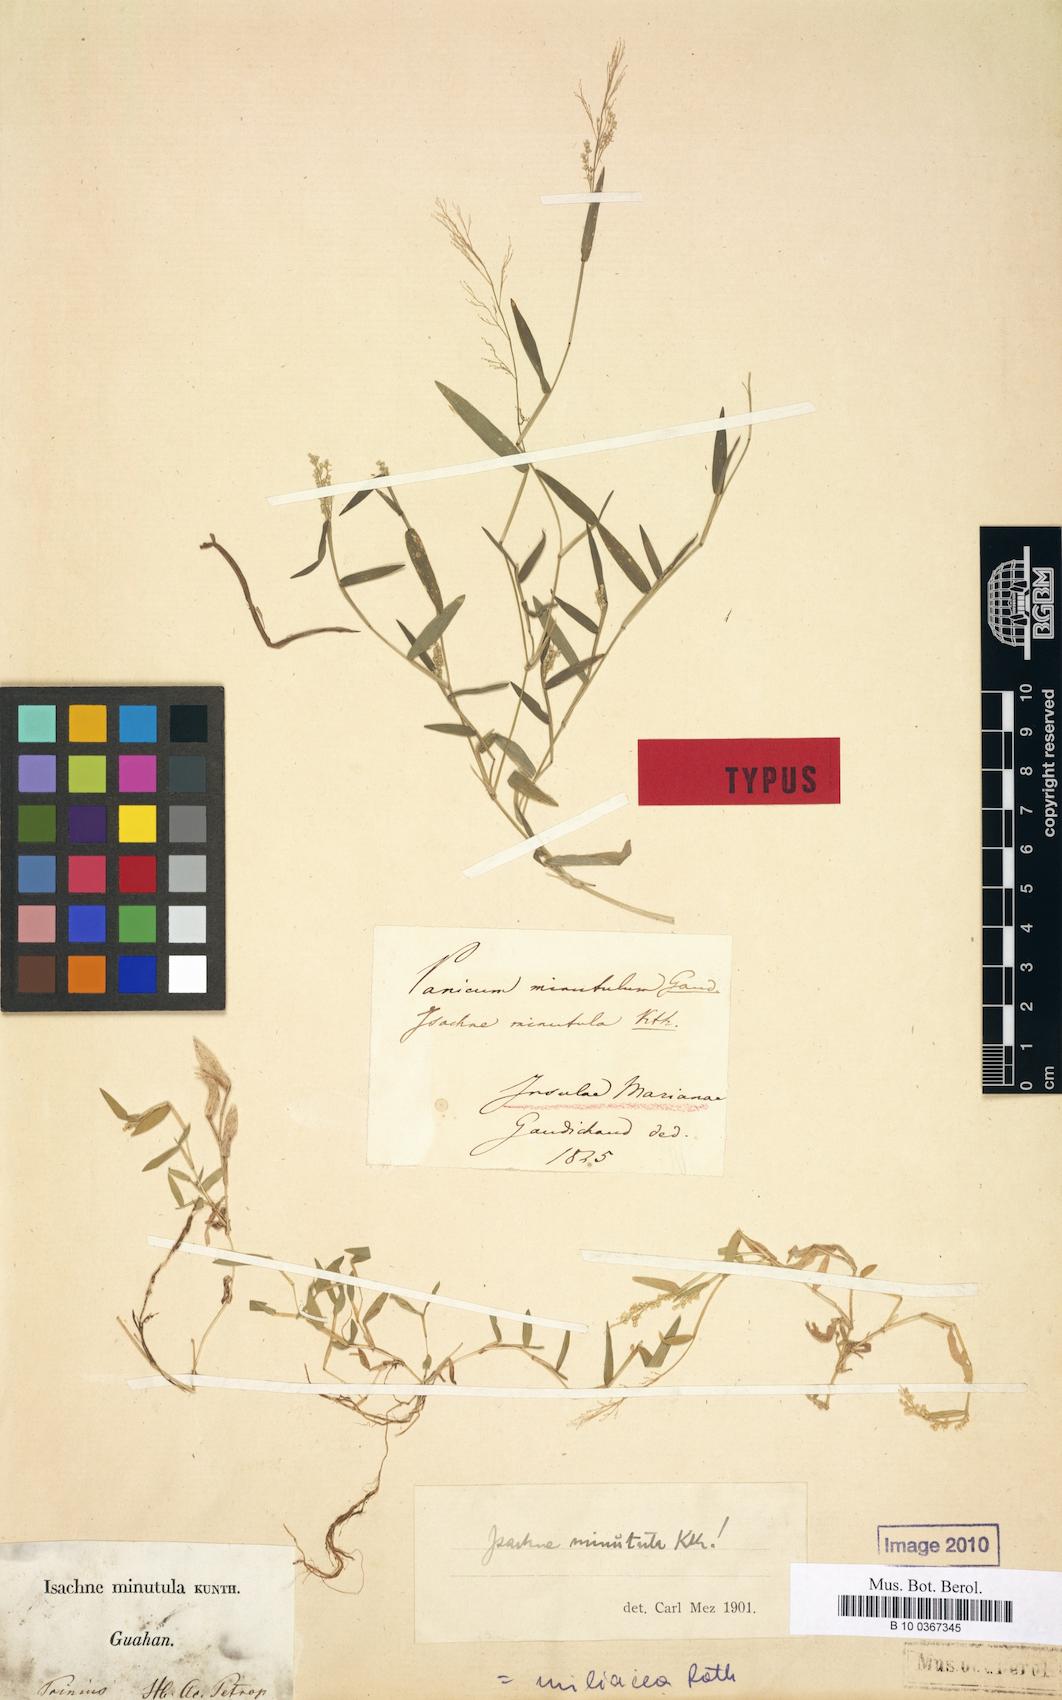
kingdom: Plantae
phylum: Tracheophyta
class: Liliopsida
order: Poales
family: Poaceae
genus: Isachne
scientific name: Isachne minutula
